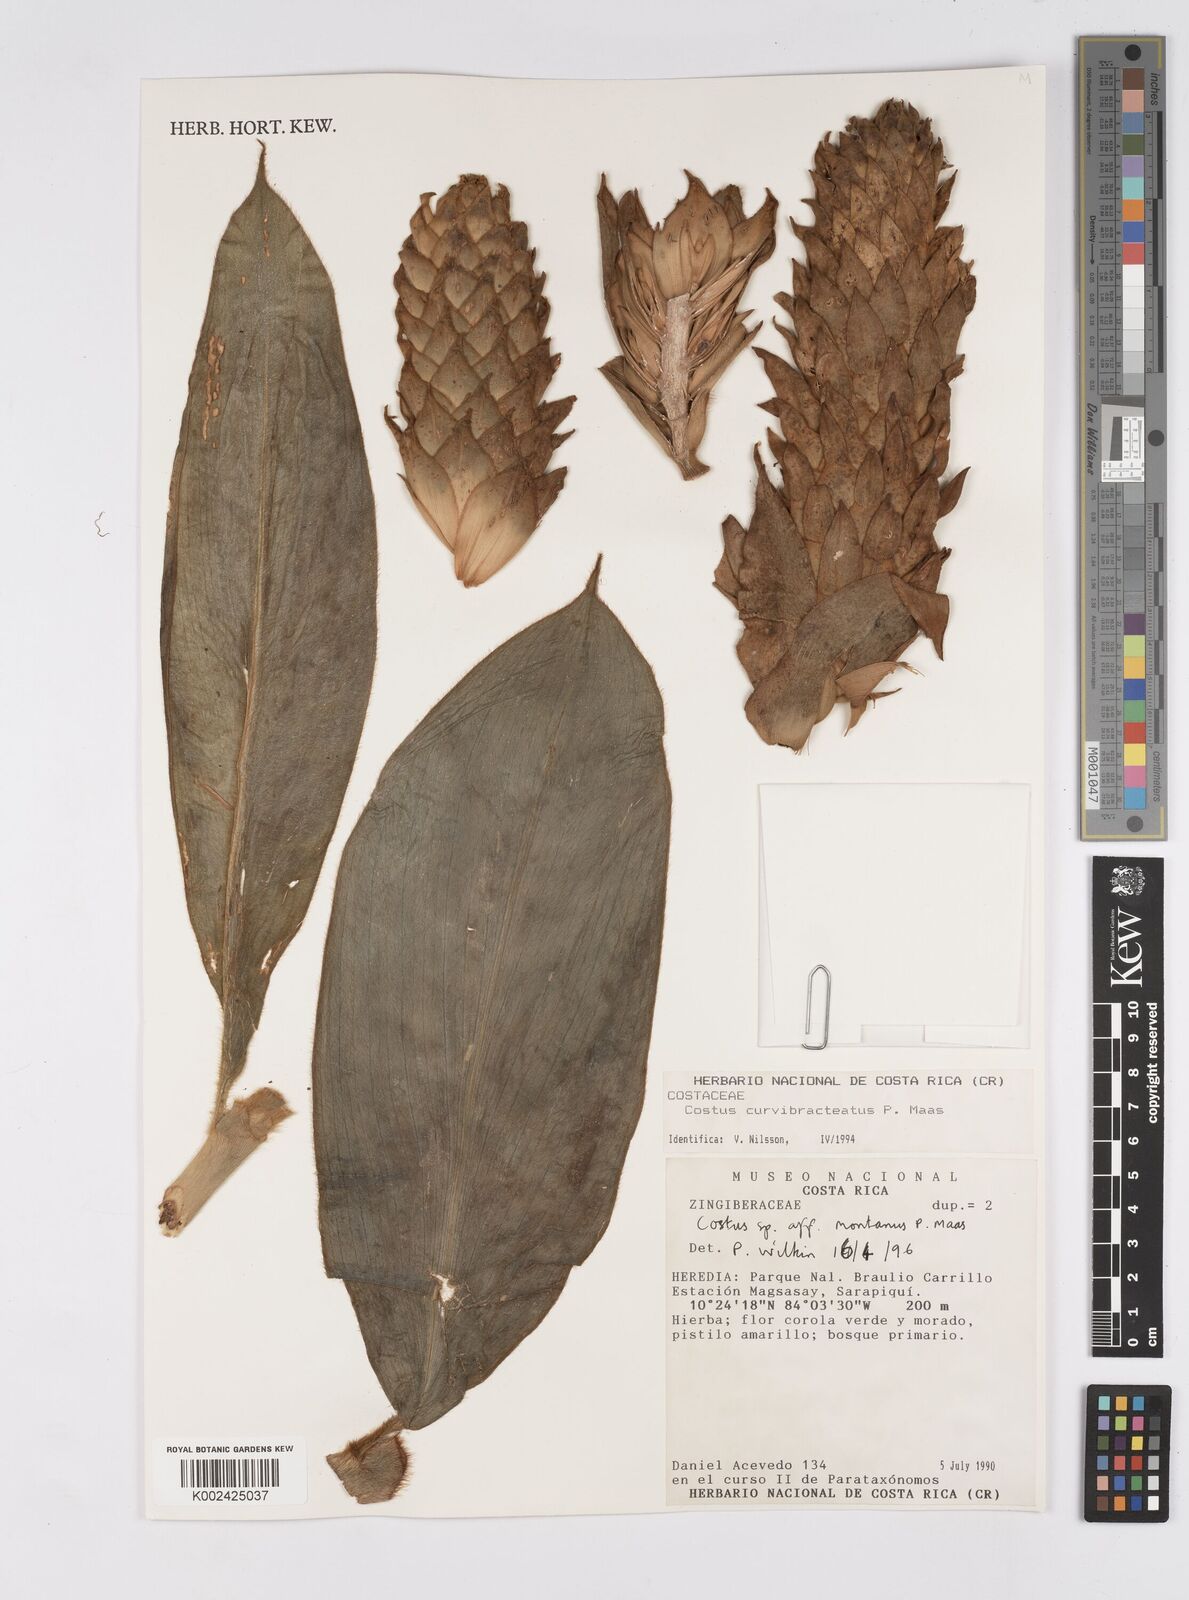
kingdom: Plantae
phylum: Tracheophyta
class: Liliopsida
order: Zingiberales
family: Costaceae
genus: Costus
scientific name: Costus montanus
